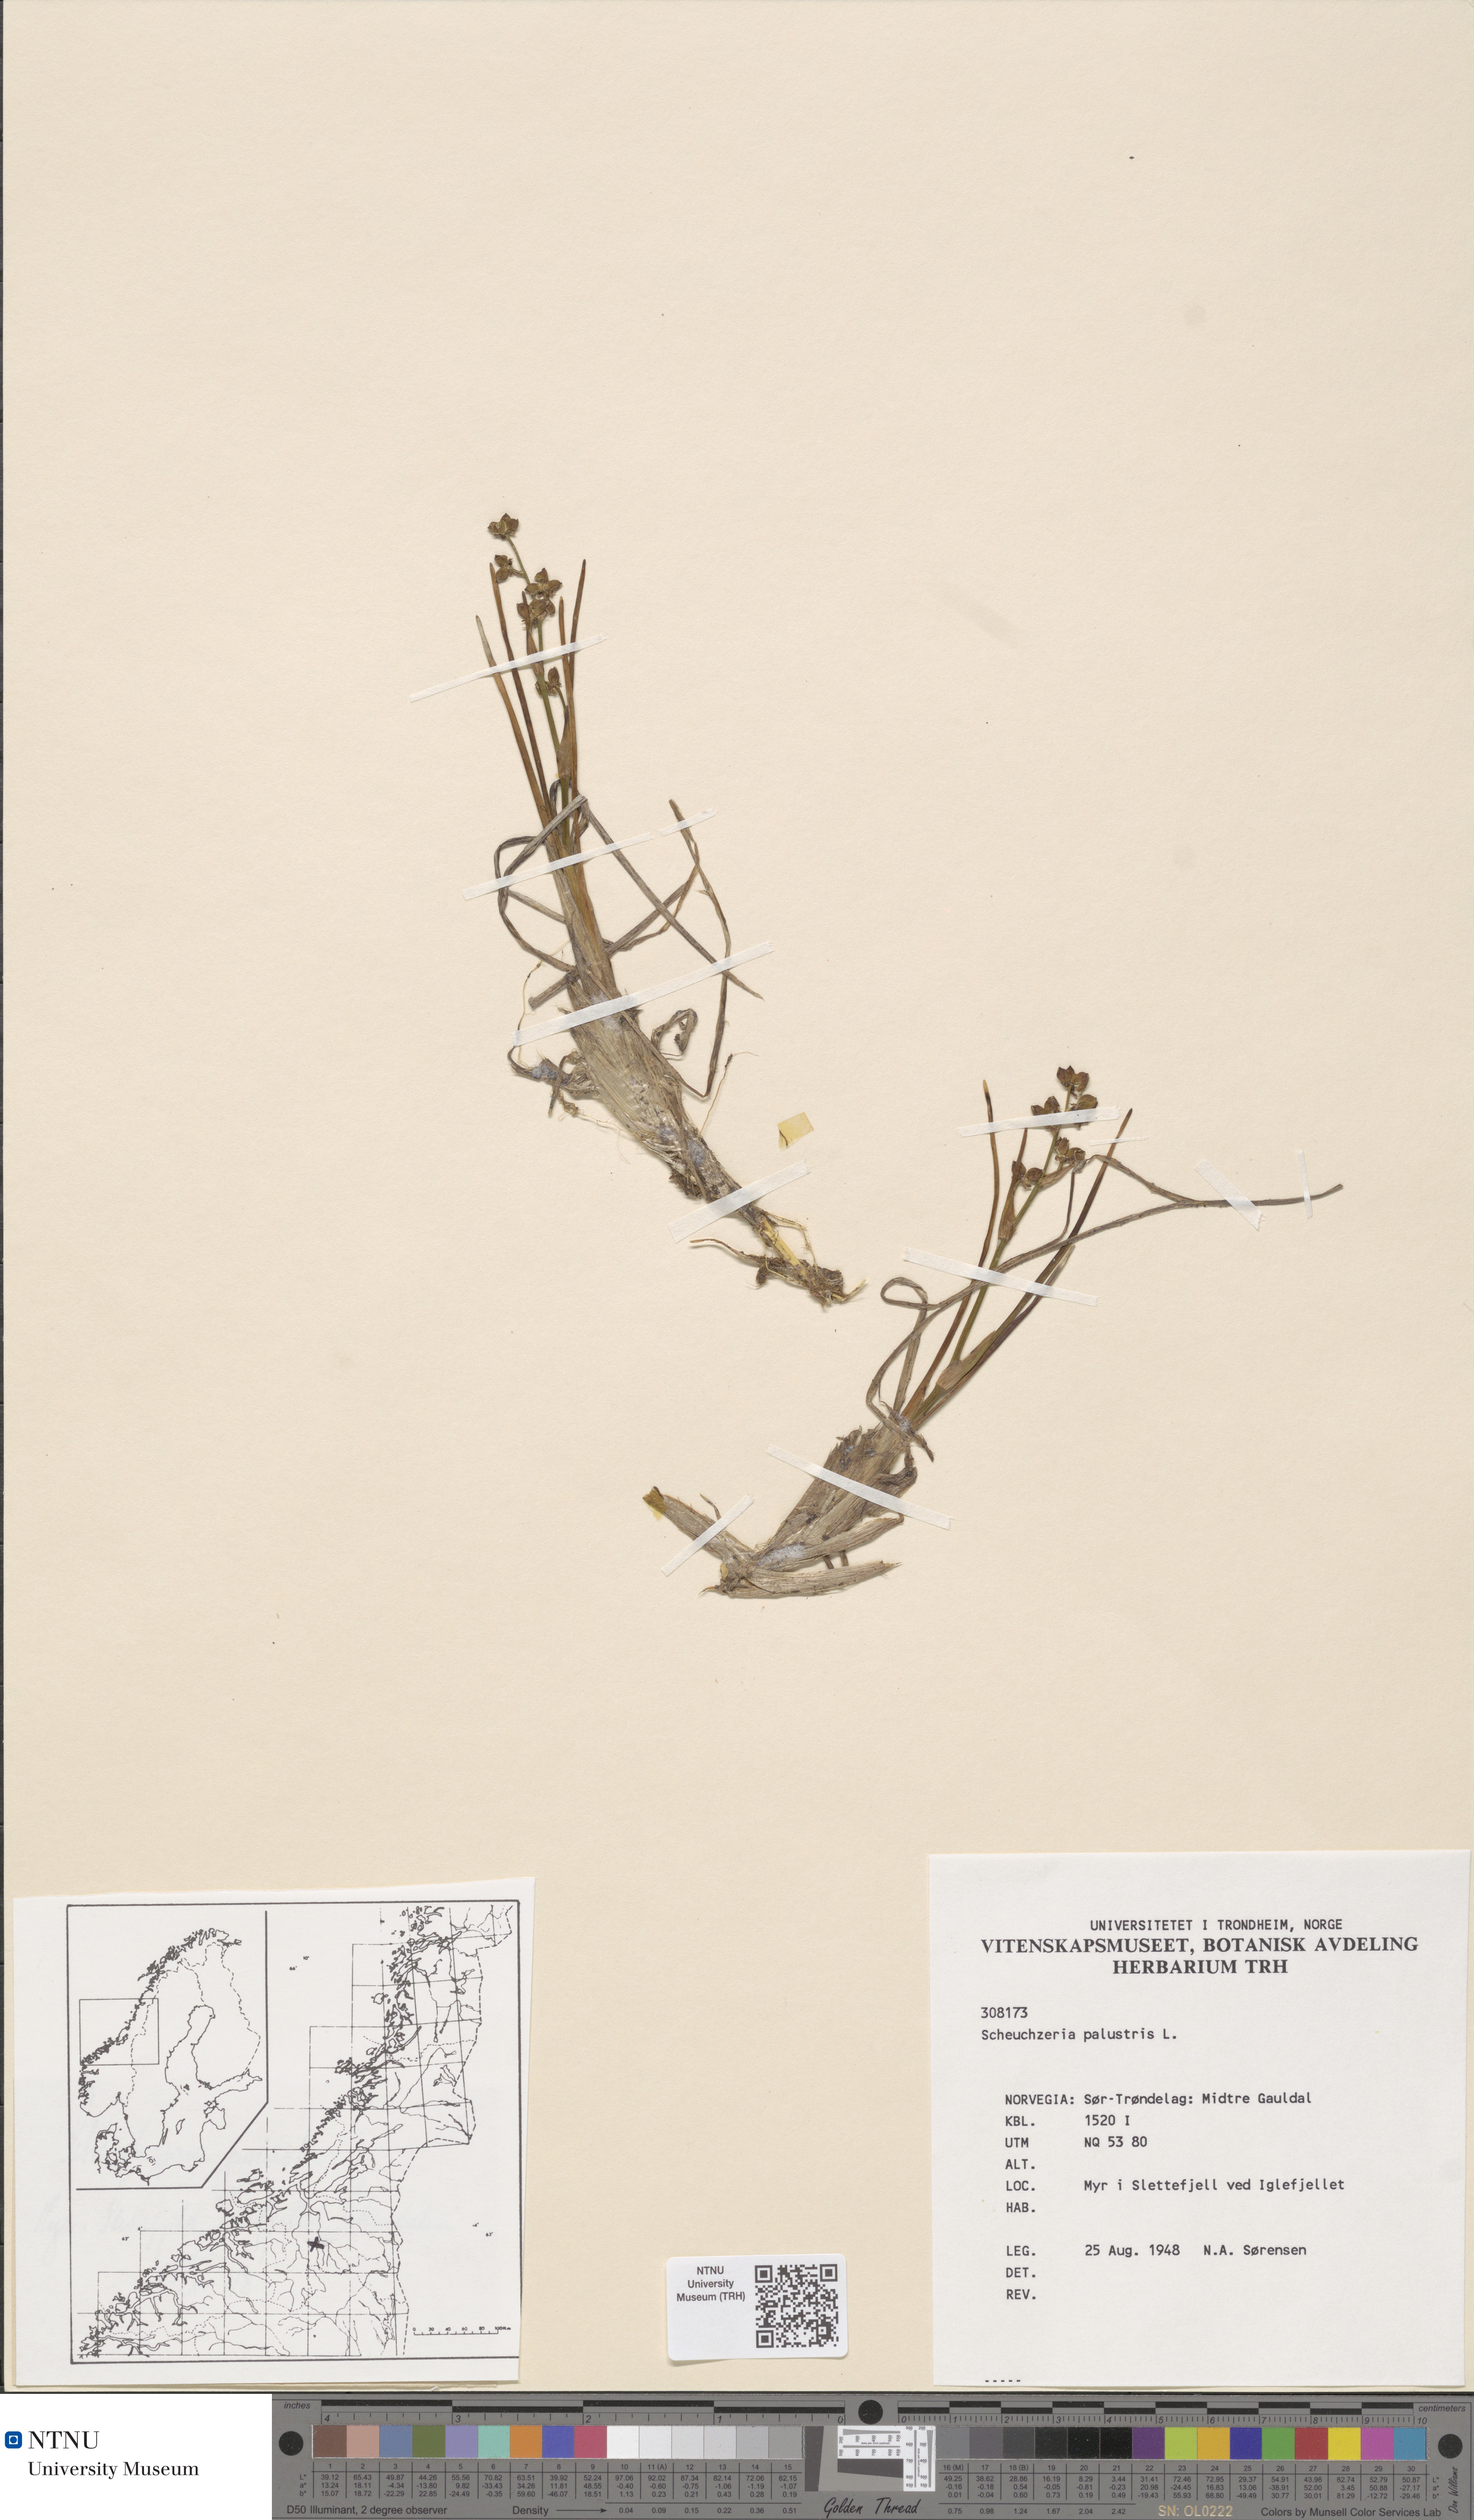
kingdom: Plantae
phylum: Tracheophyta
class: Liliopsida
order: Alismatales
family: Scheuchzeriaceae
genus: Scheuchzeria
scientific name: Scheuchzeria palustris
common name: Rannoch-rush
